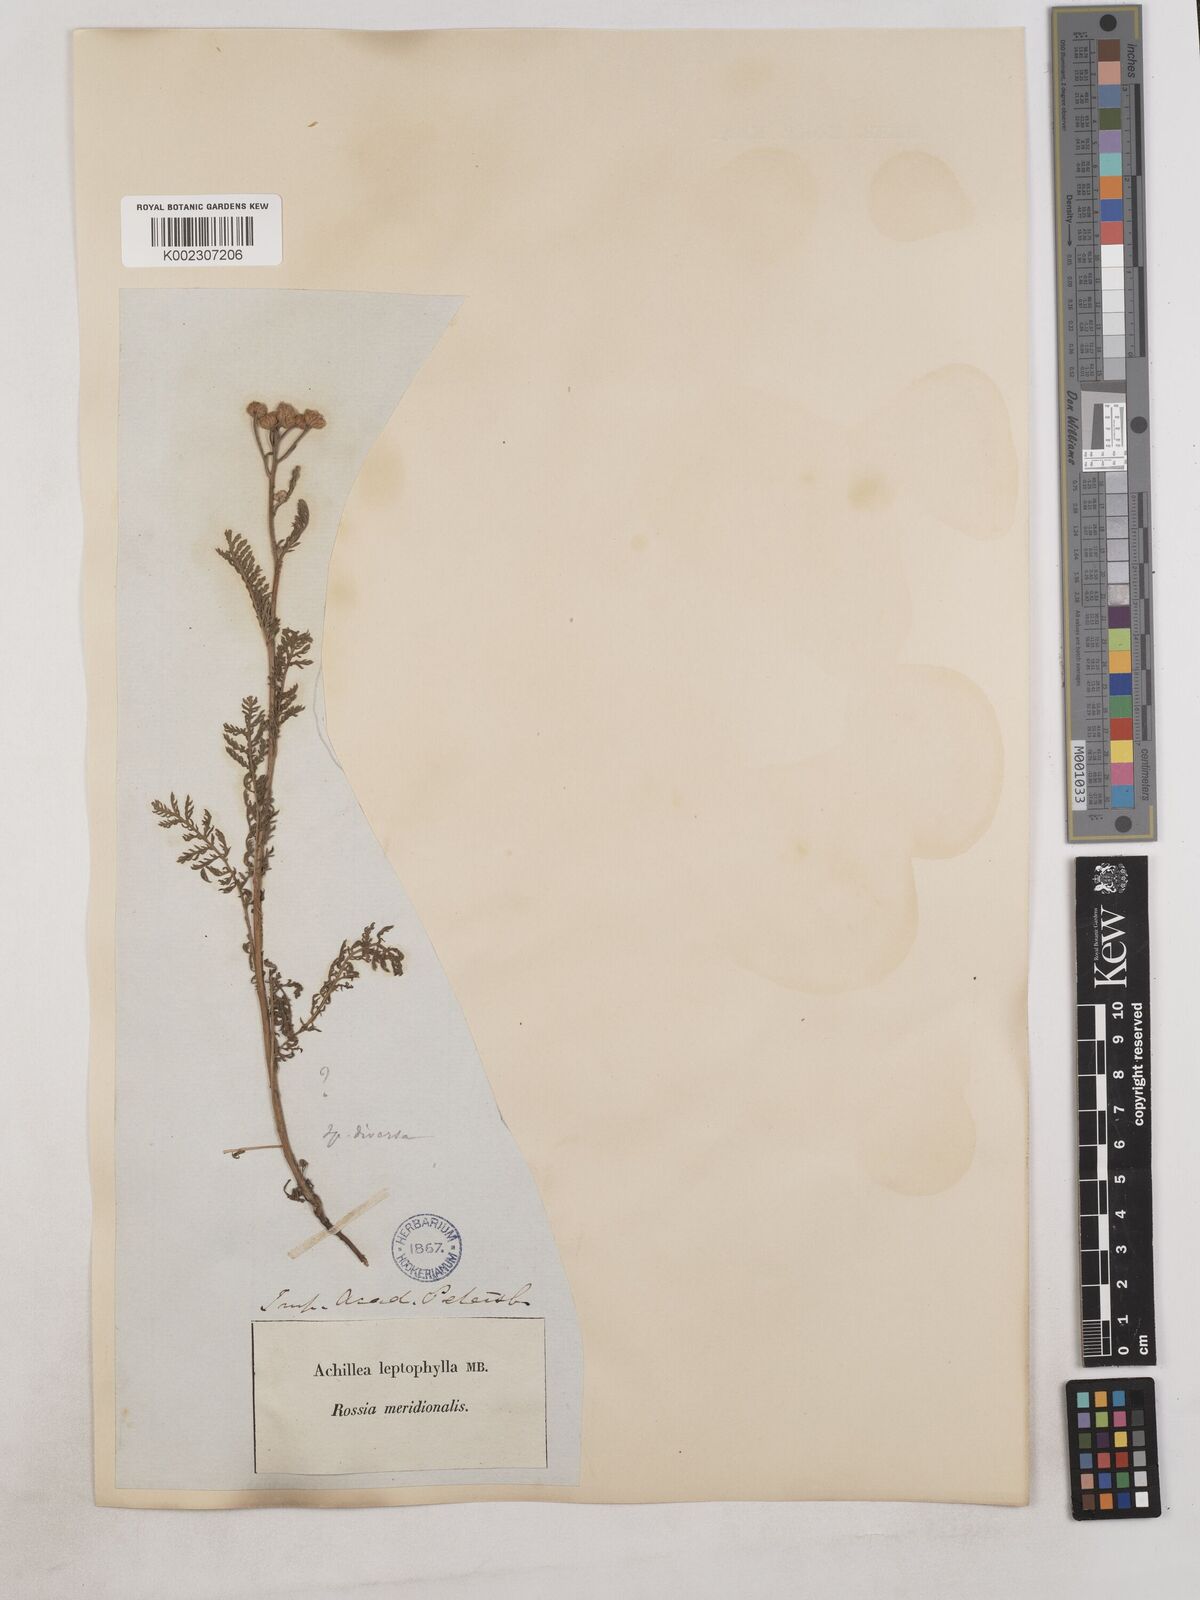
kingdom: Plantae
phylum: Tracheophyta
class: Magnoliopsida
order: Asterales
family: Asteraceae
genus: Achillea
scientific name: Achillea leptophylla
